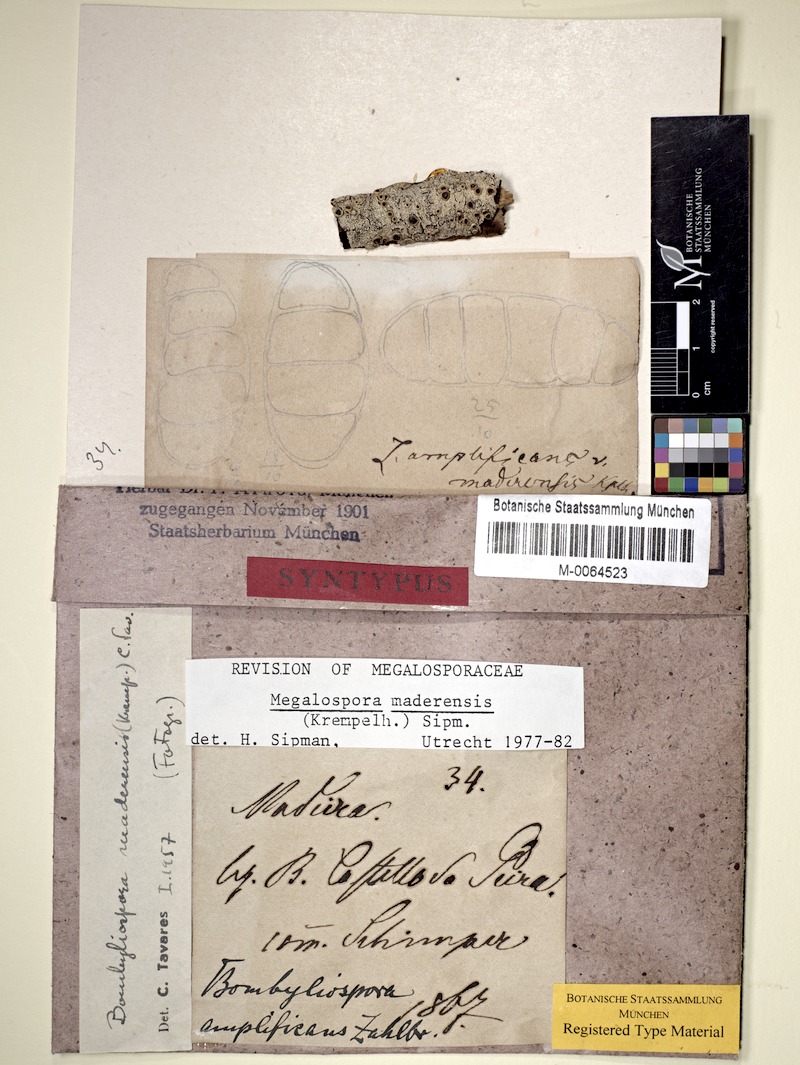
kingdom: Fungi
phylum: Ascomycota
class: Lecanoromycetes
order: Teloschistales
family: Megalosporaceae
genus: Megalospora
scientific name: Megalospora maderensis
